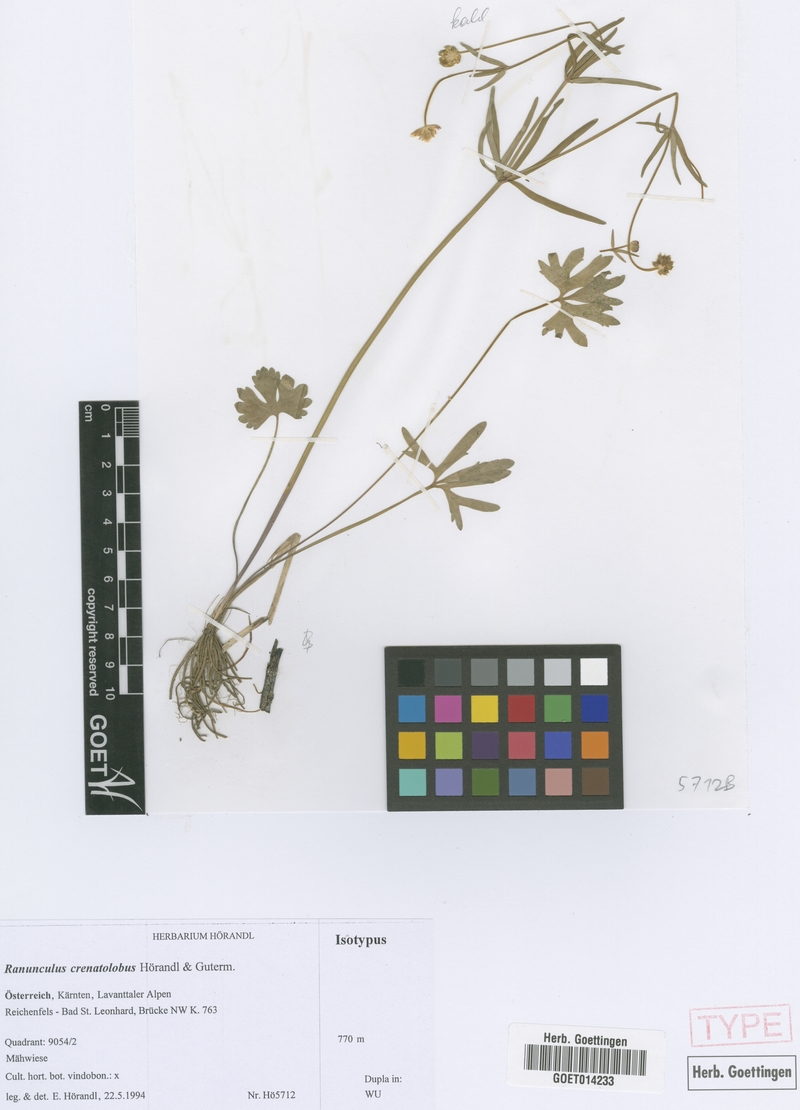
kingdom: Plantae
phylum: Tracheophyta
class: Magnoliopsida
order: Ranunculales
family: Ranunculaceae
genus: Ranunculus
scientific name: Ranunculus crenatolobus
